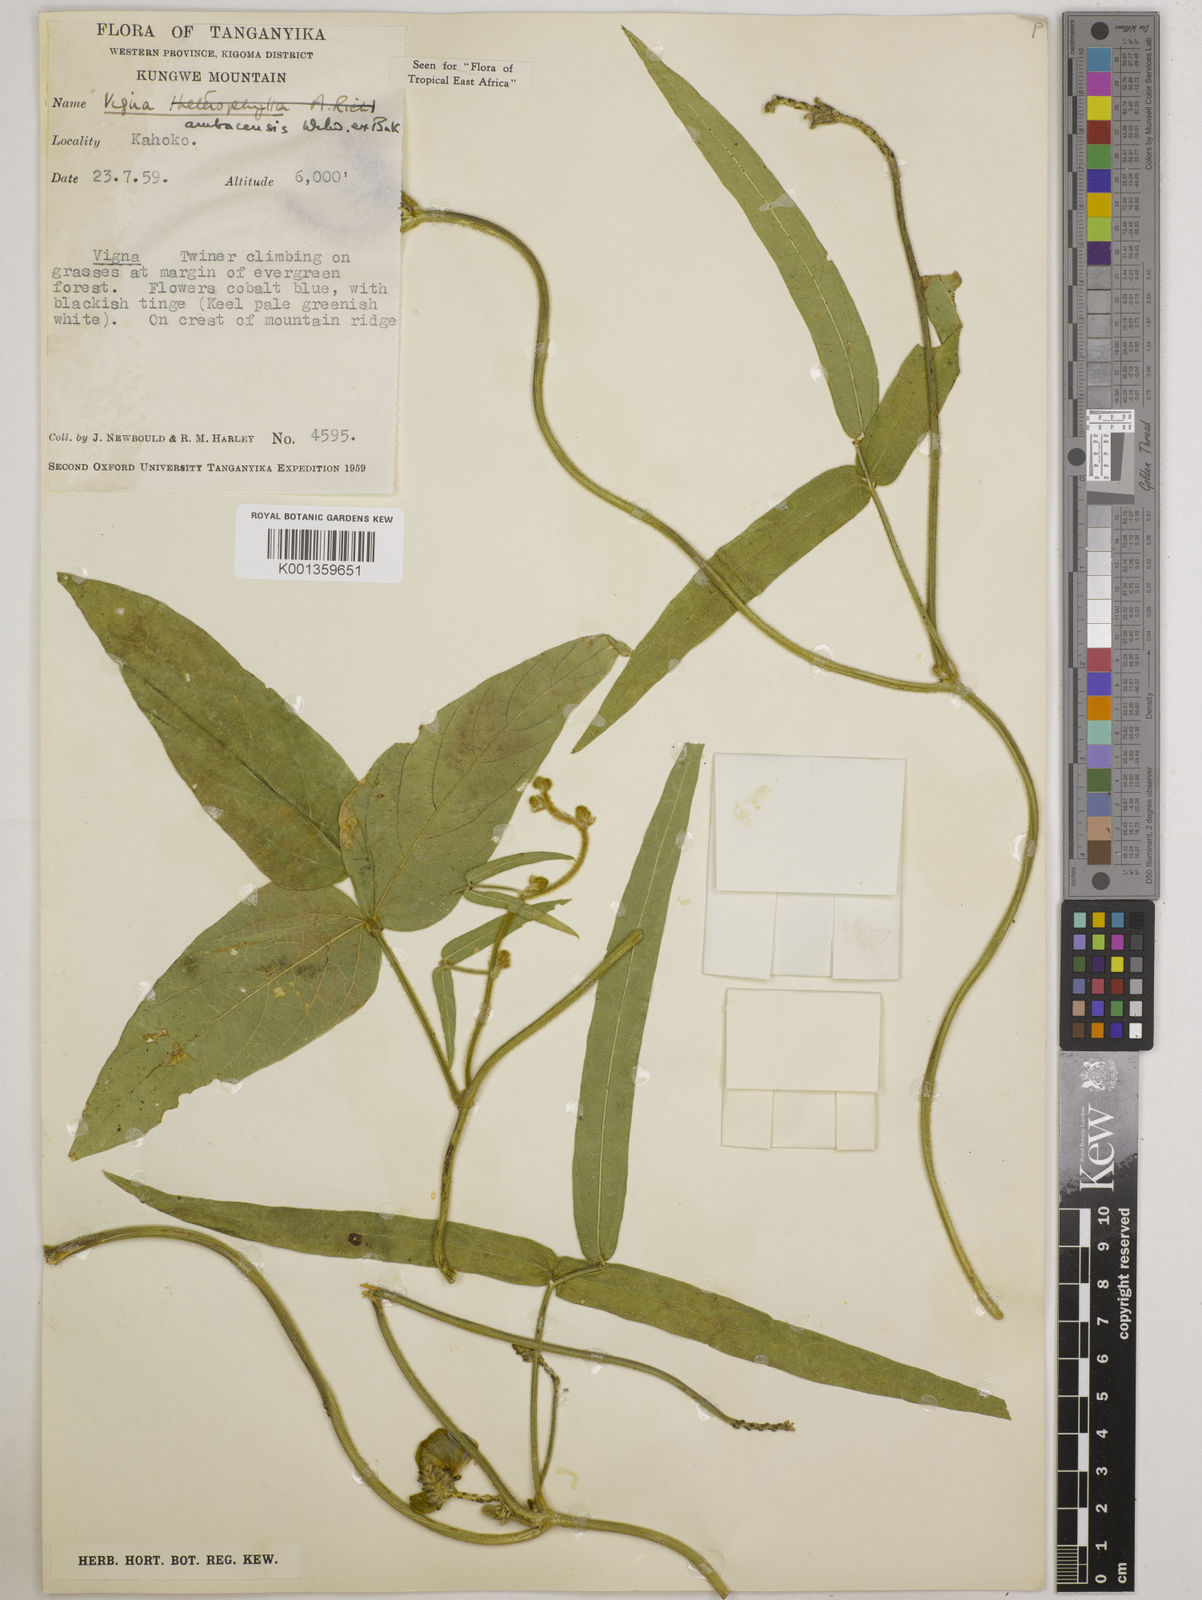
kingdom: Plantae
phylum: Tracheophyta
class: Magnoliopsida
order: Fabales
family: Fabaceae
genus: Vigna
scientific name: Vigna ambacensis
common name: Tsarkiyan zomo
